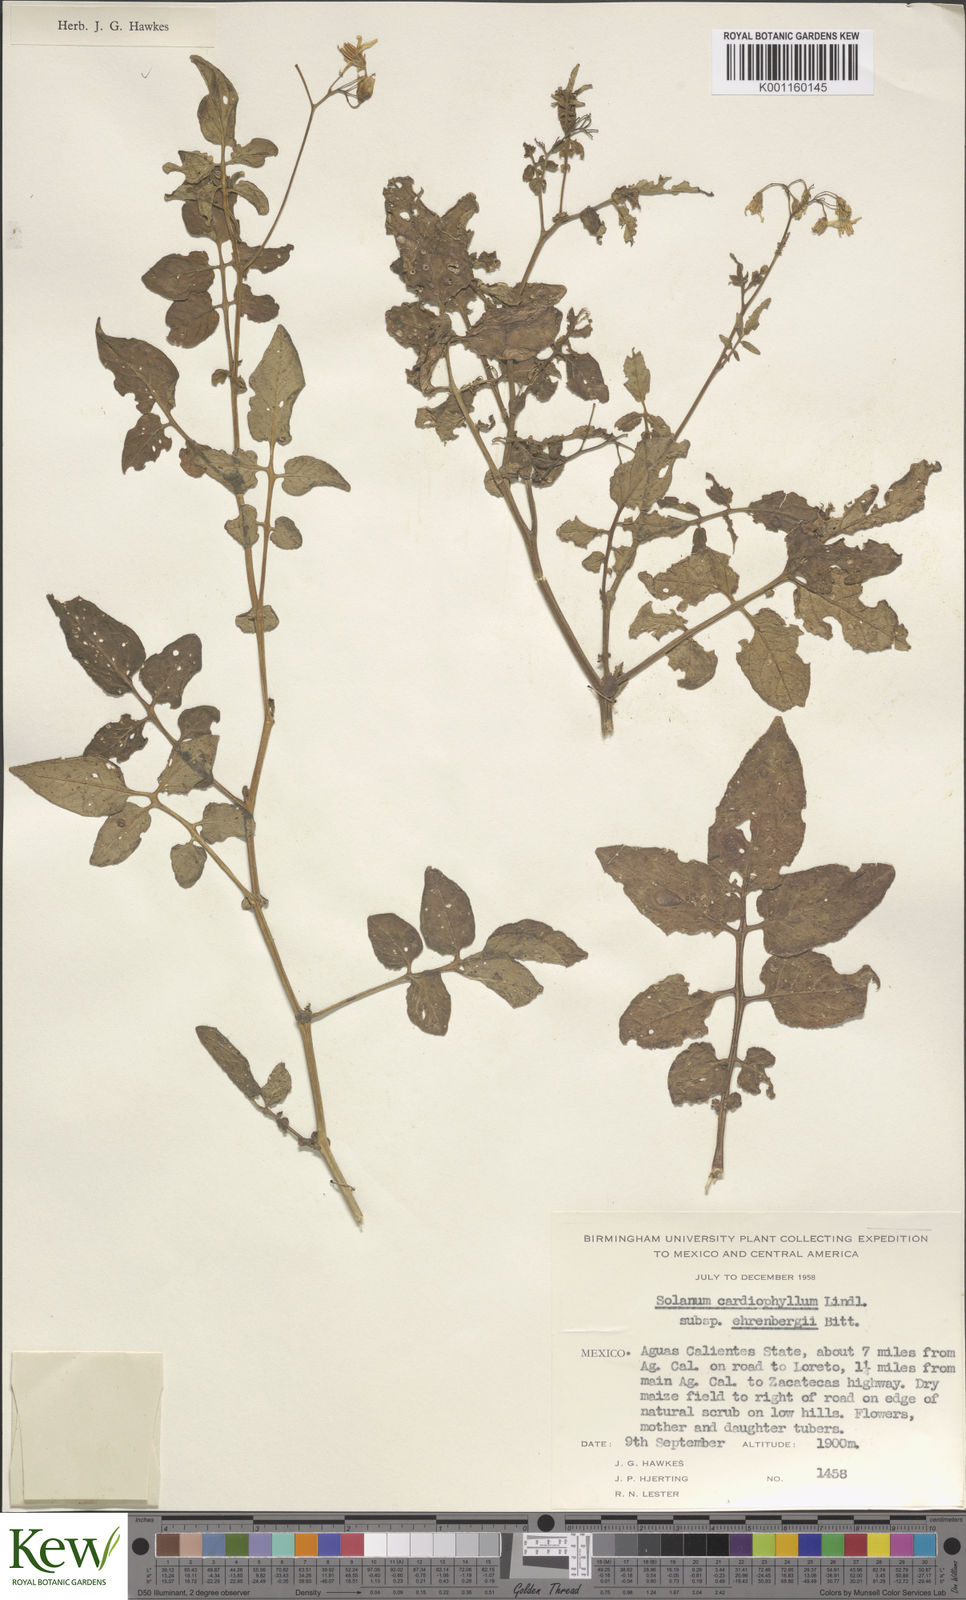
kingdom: Plantae
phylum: Tracheophyta
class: Magnoliopsida
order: Solanales
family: Solanaceae
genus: Solanum
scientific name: Solanum cardiophyllum
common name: Heartleaf horsenettle
